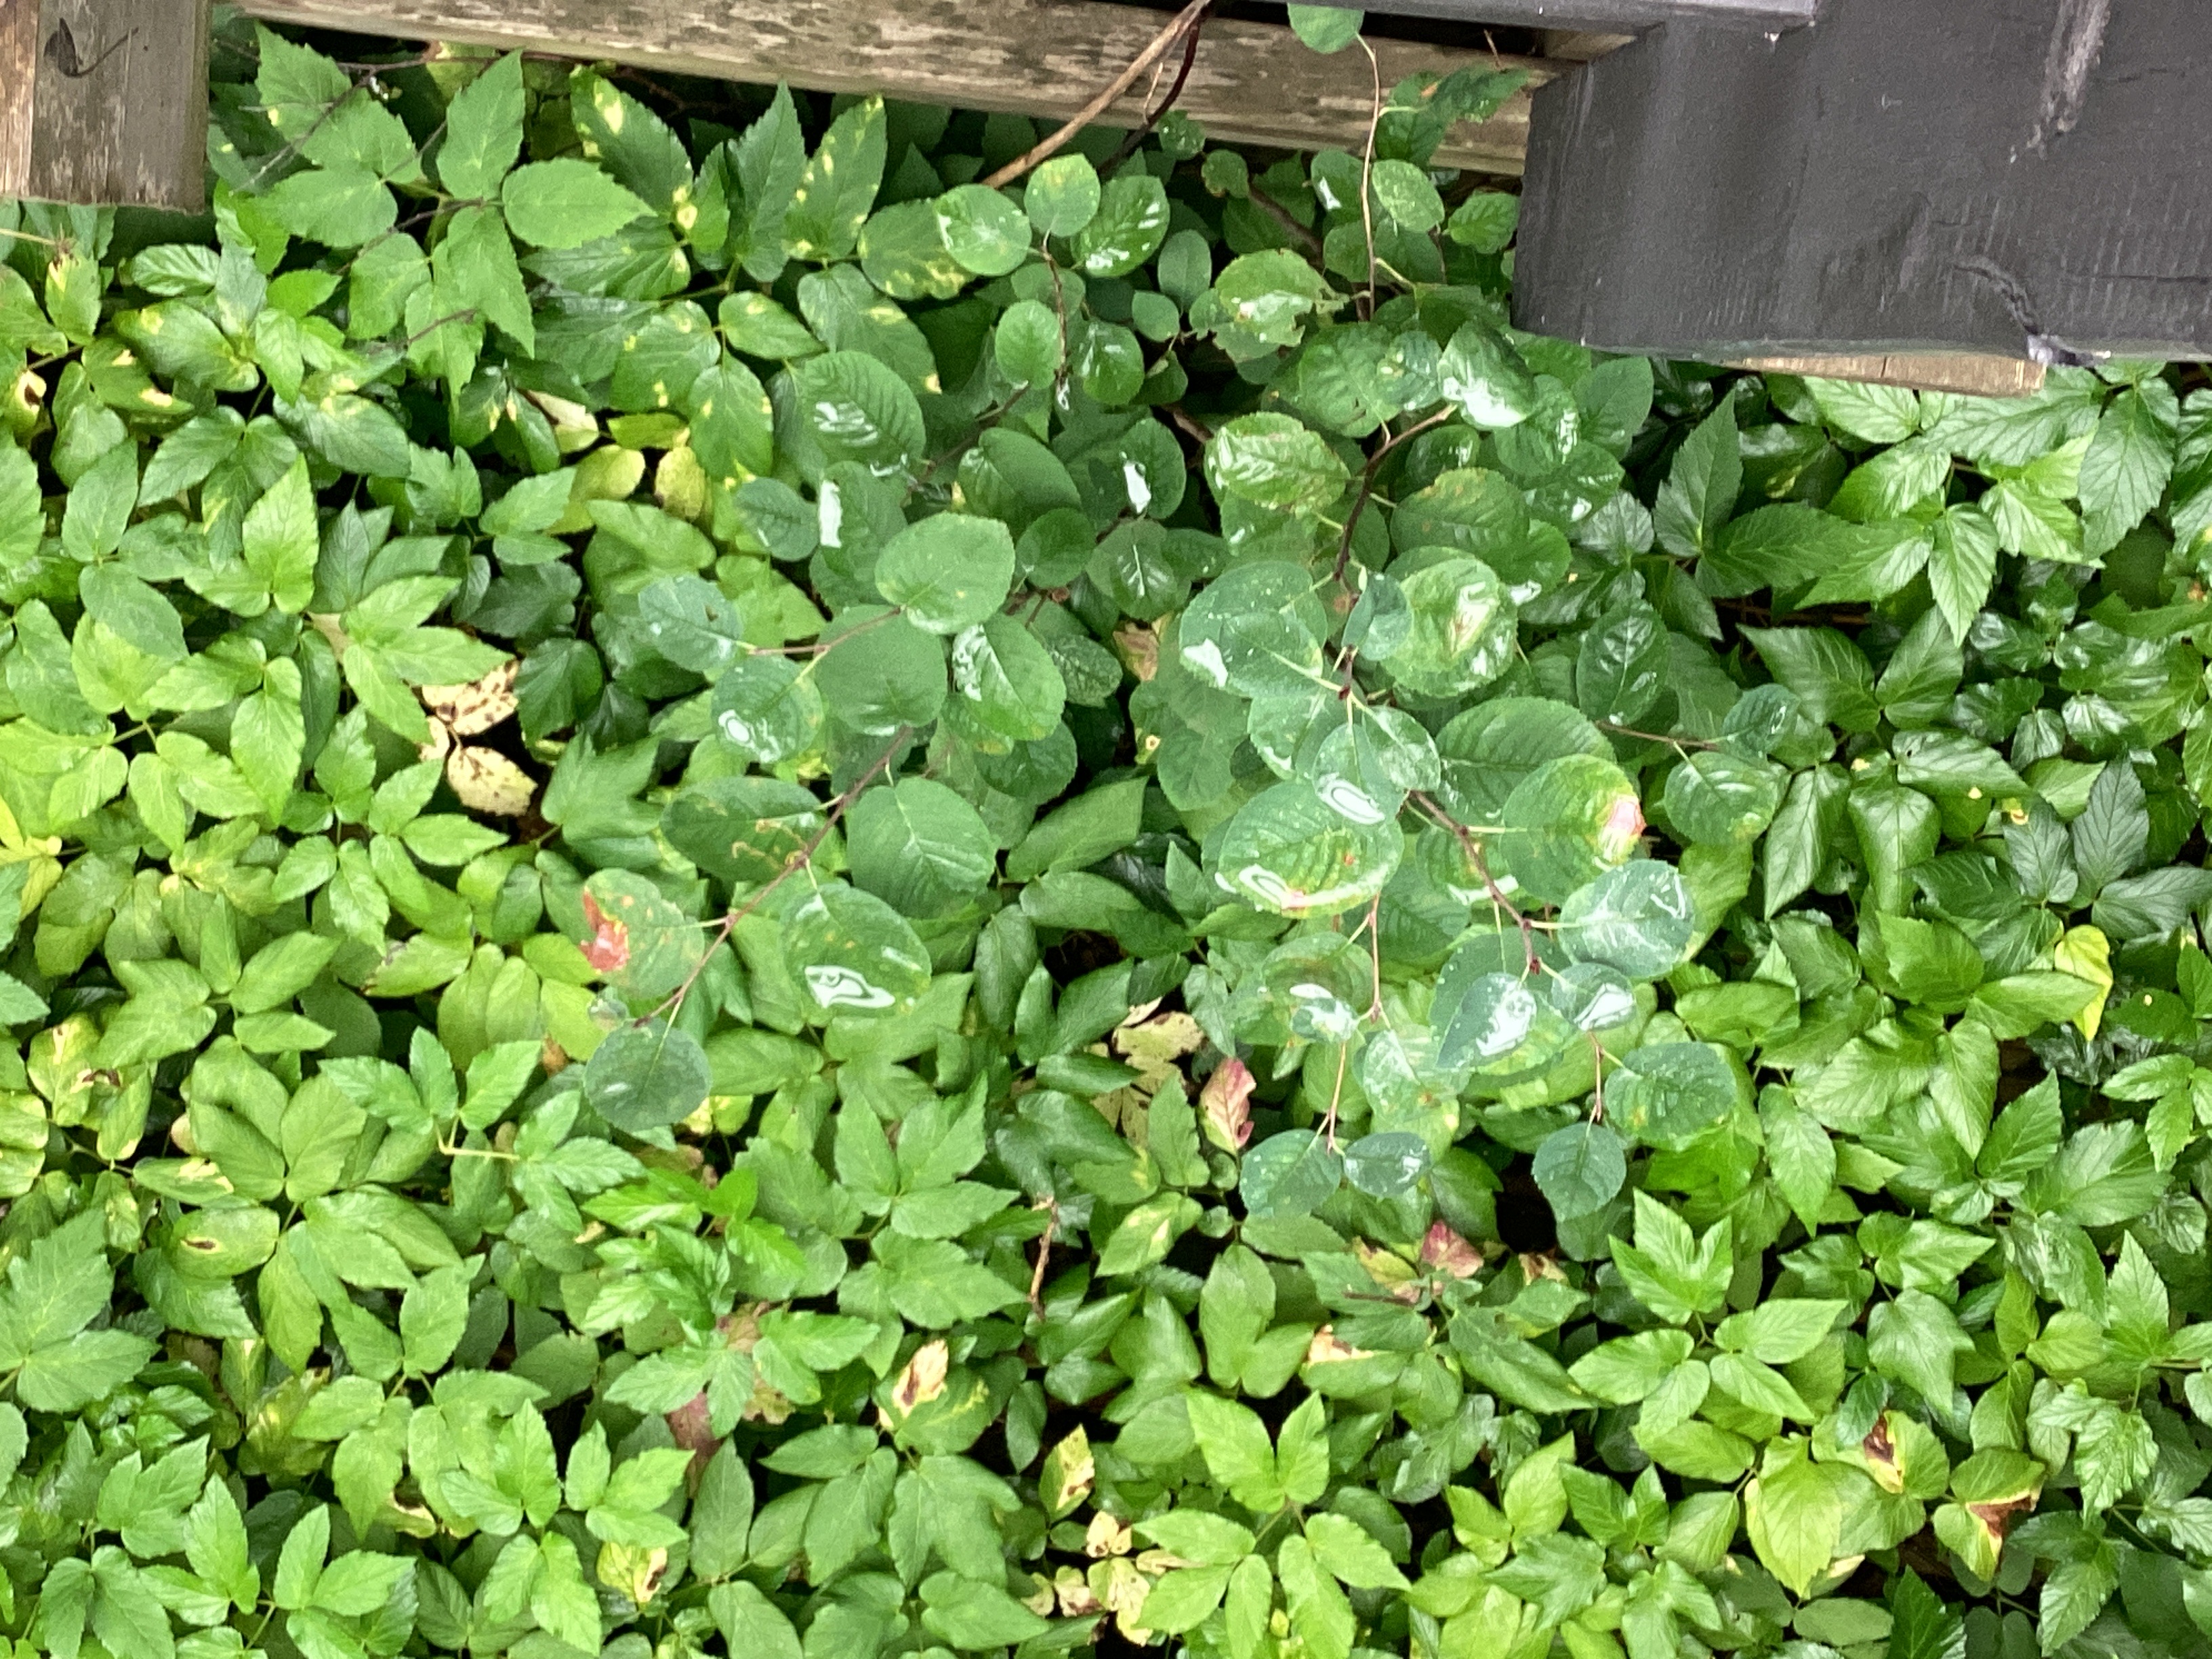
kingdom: Plantae
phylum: Tracheophyta
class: Magnoliopsida
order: Rosales
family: Rosaceae
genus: Amelanchier
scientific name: Amelanchier humilis
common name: blåhegg
